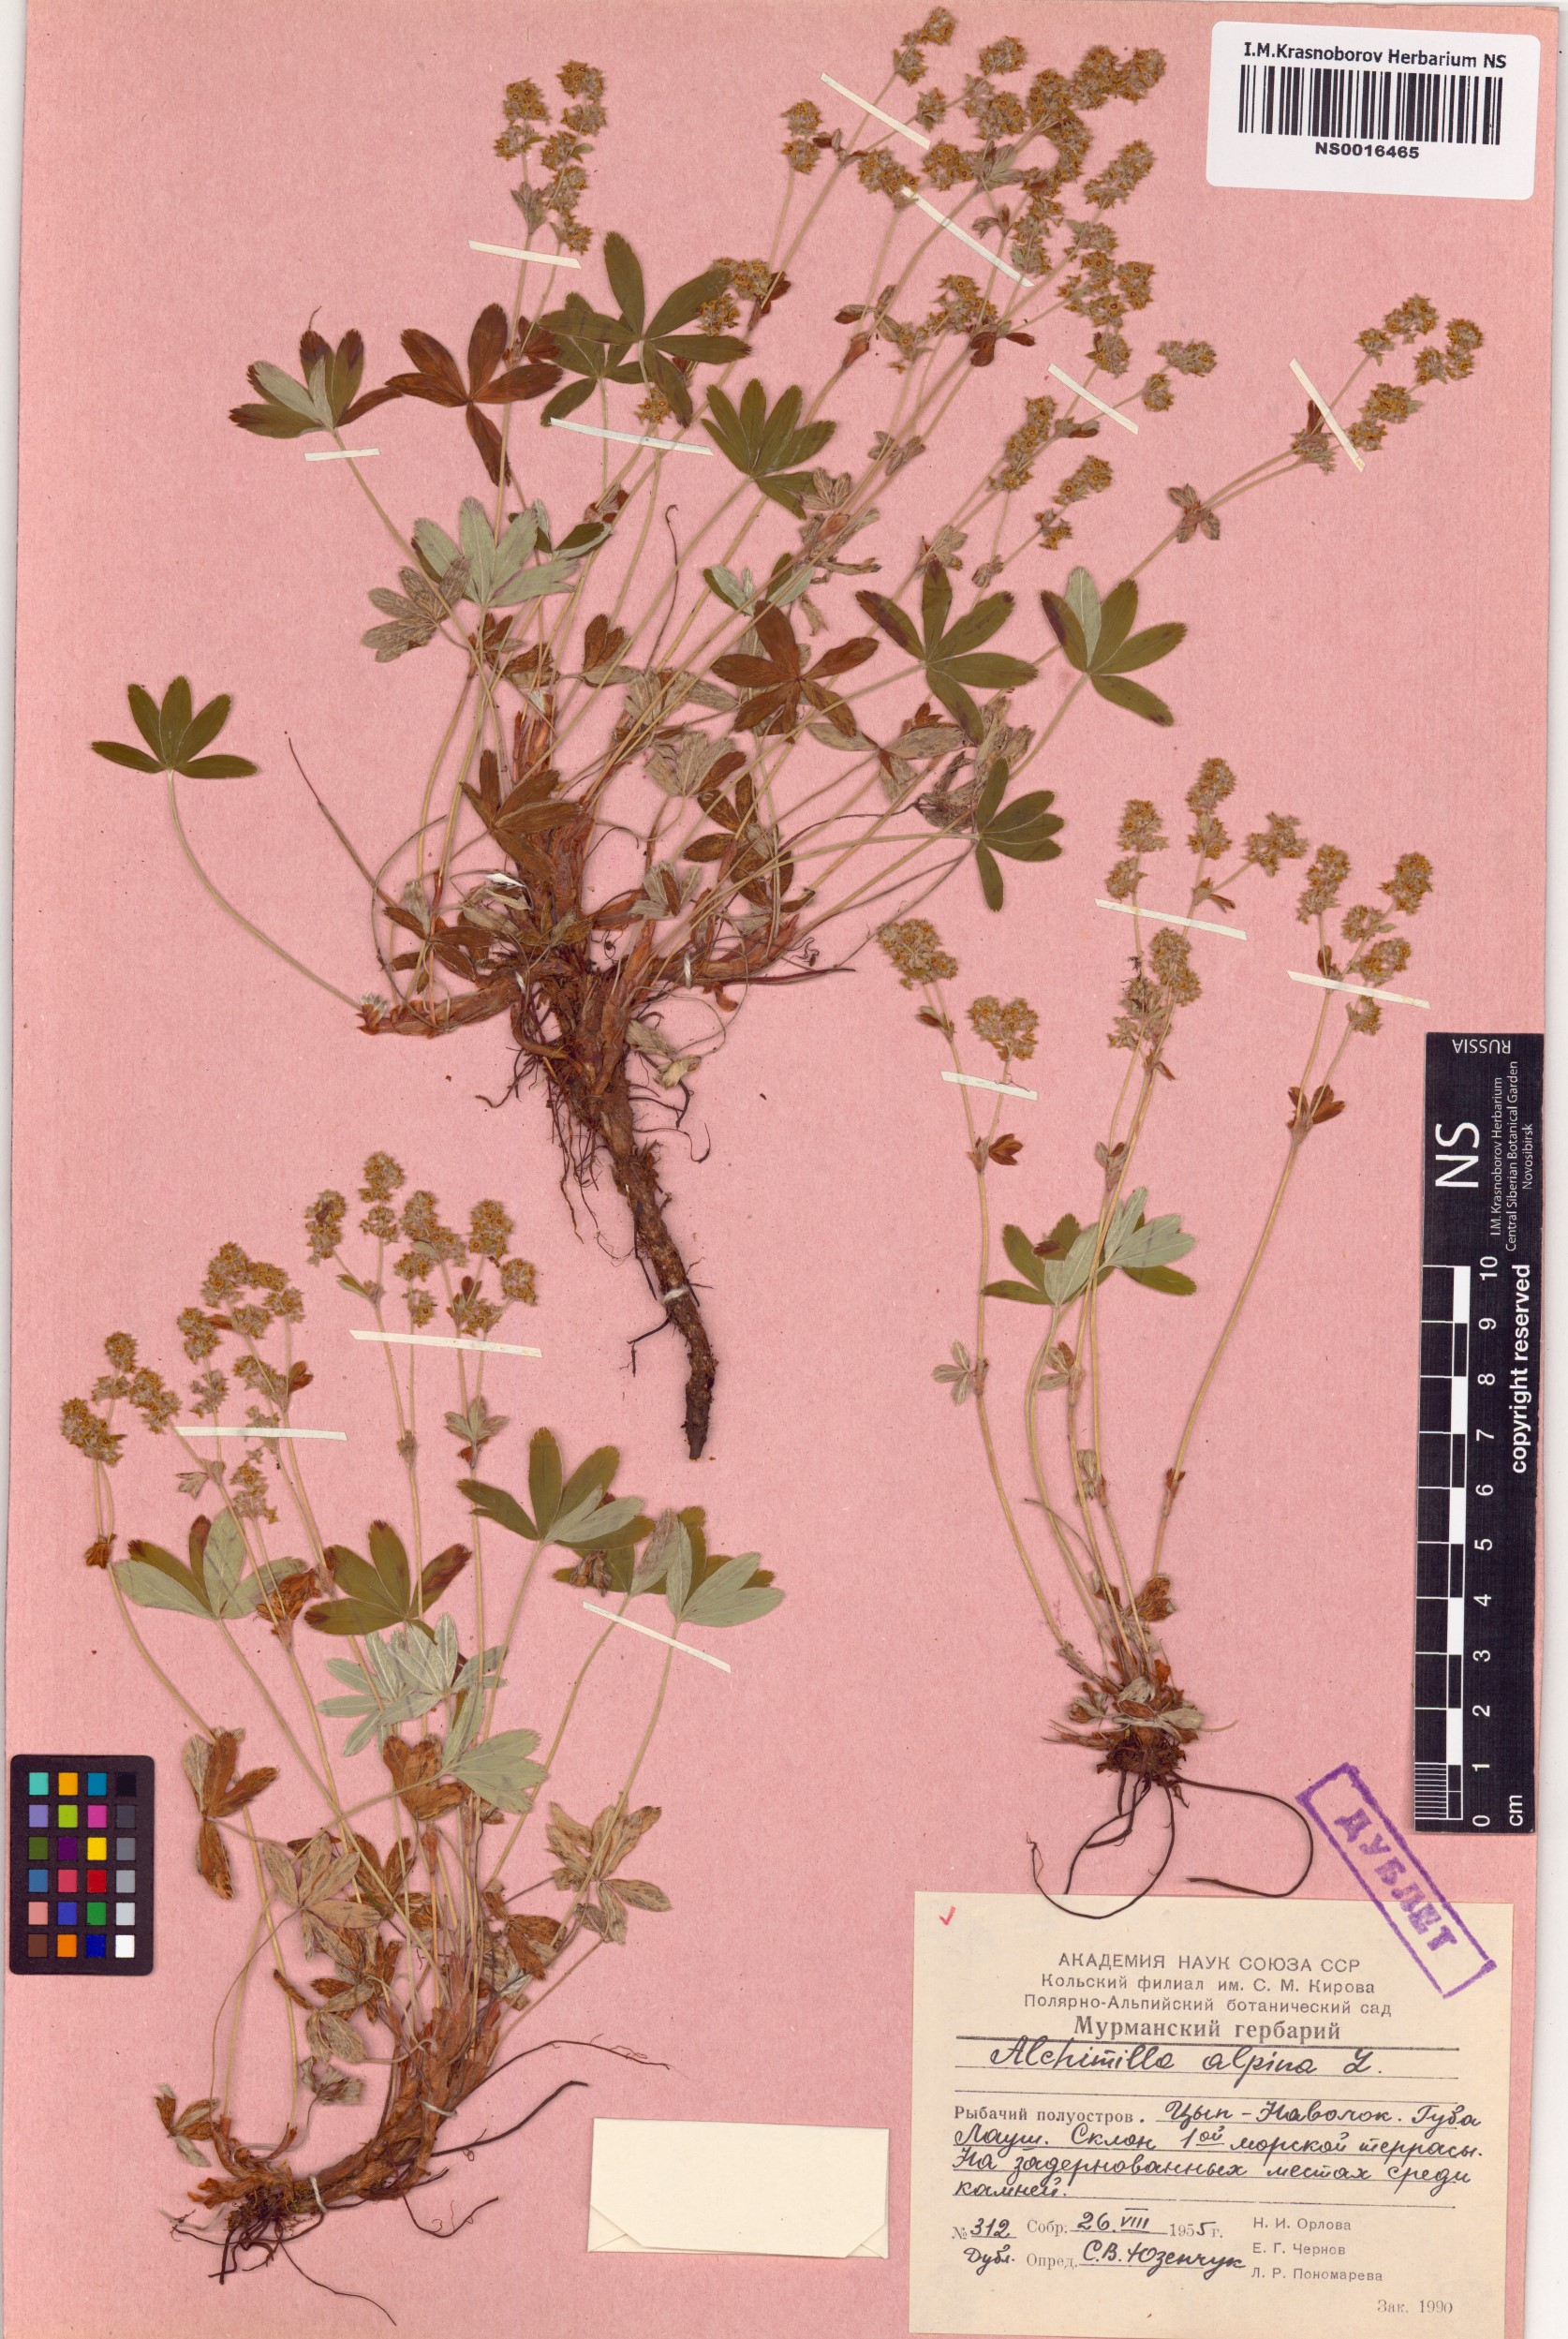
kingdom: Plantae
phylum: Tracheophyta
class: Magnoliopsida
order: Rosales
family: Rosaceae
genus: Alchemilla
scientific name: Alchemilla alpina
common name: Alpine lady's-mantle
